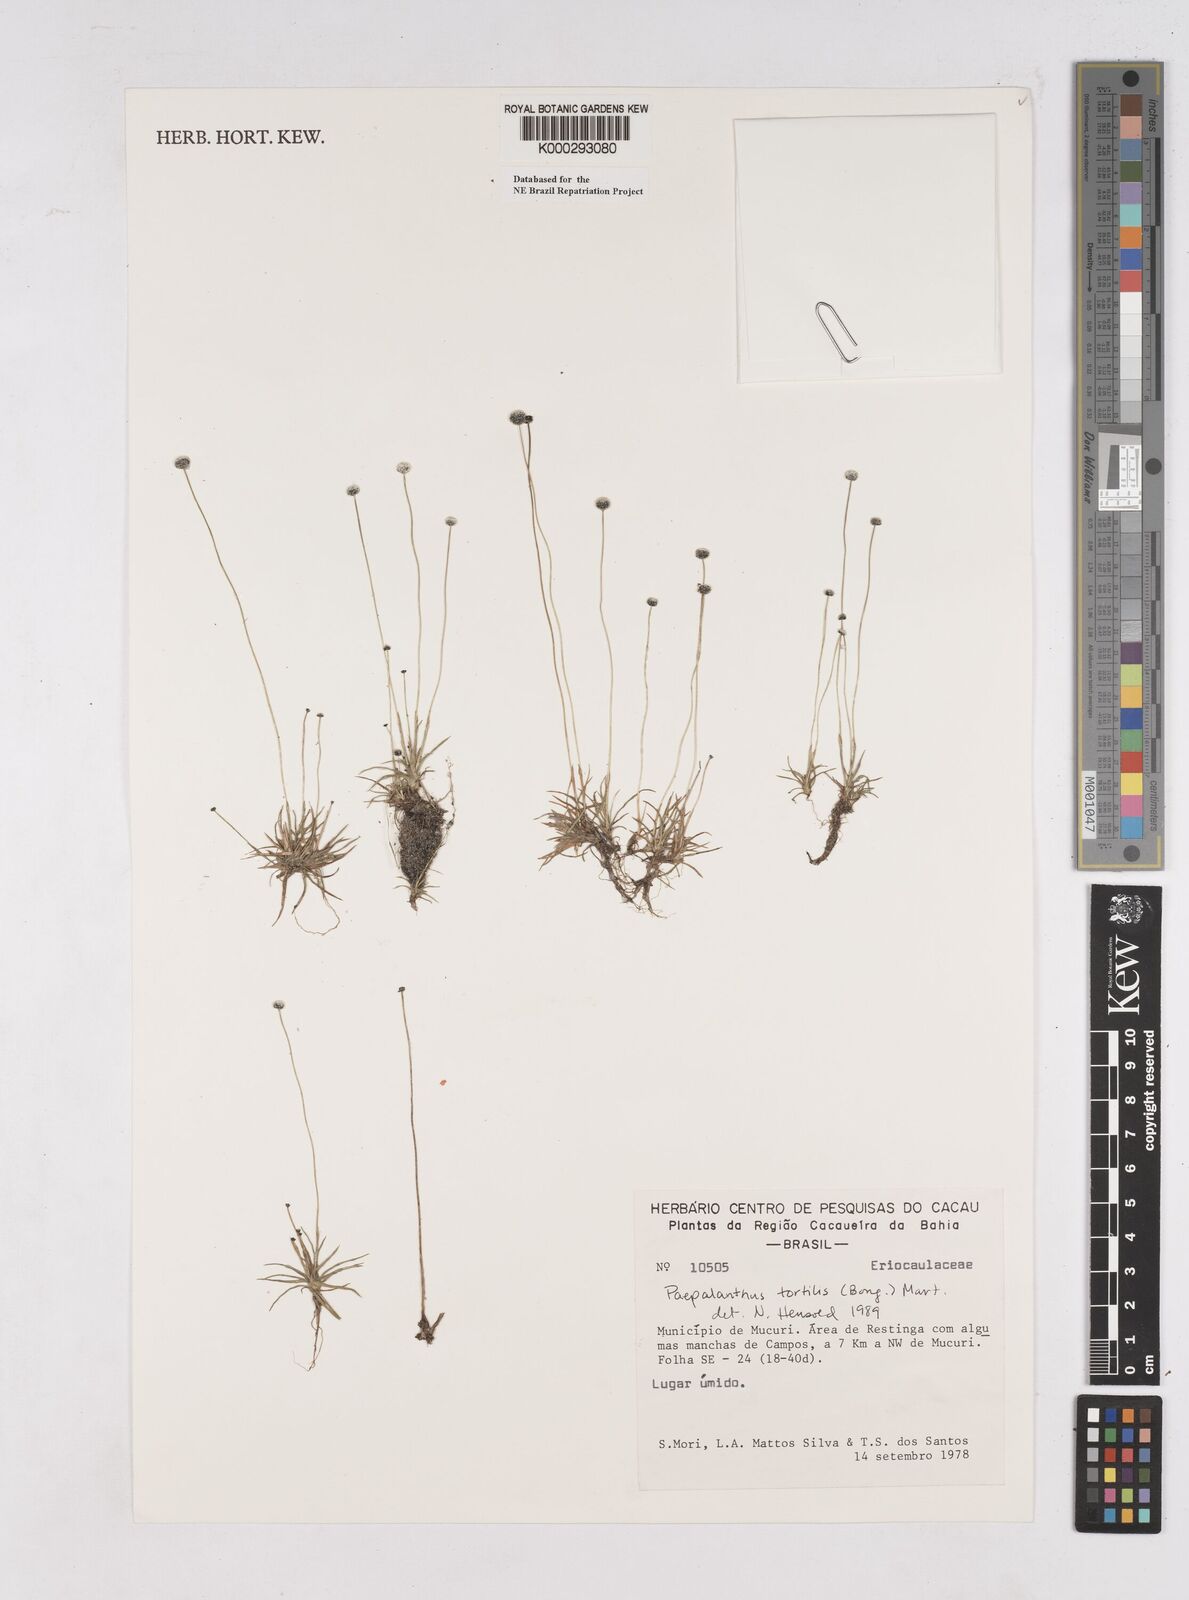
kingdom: Plantae
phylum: Tracheophyta
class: Liliopsida
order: Poales
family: Eriocaulaceae
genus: Paepalanthus
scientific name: Paepalanthus
